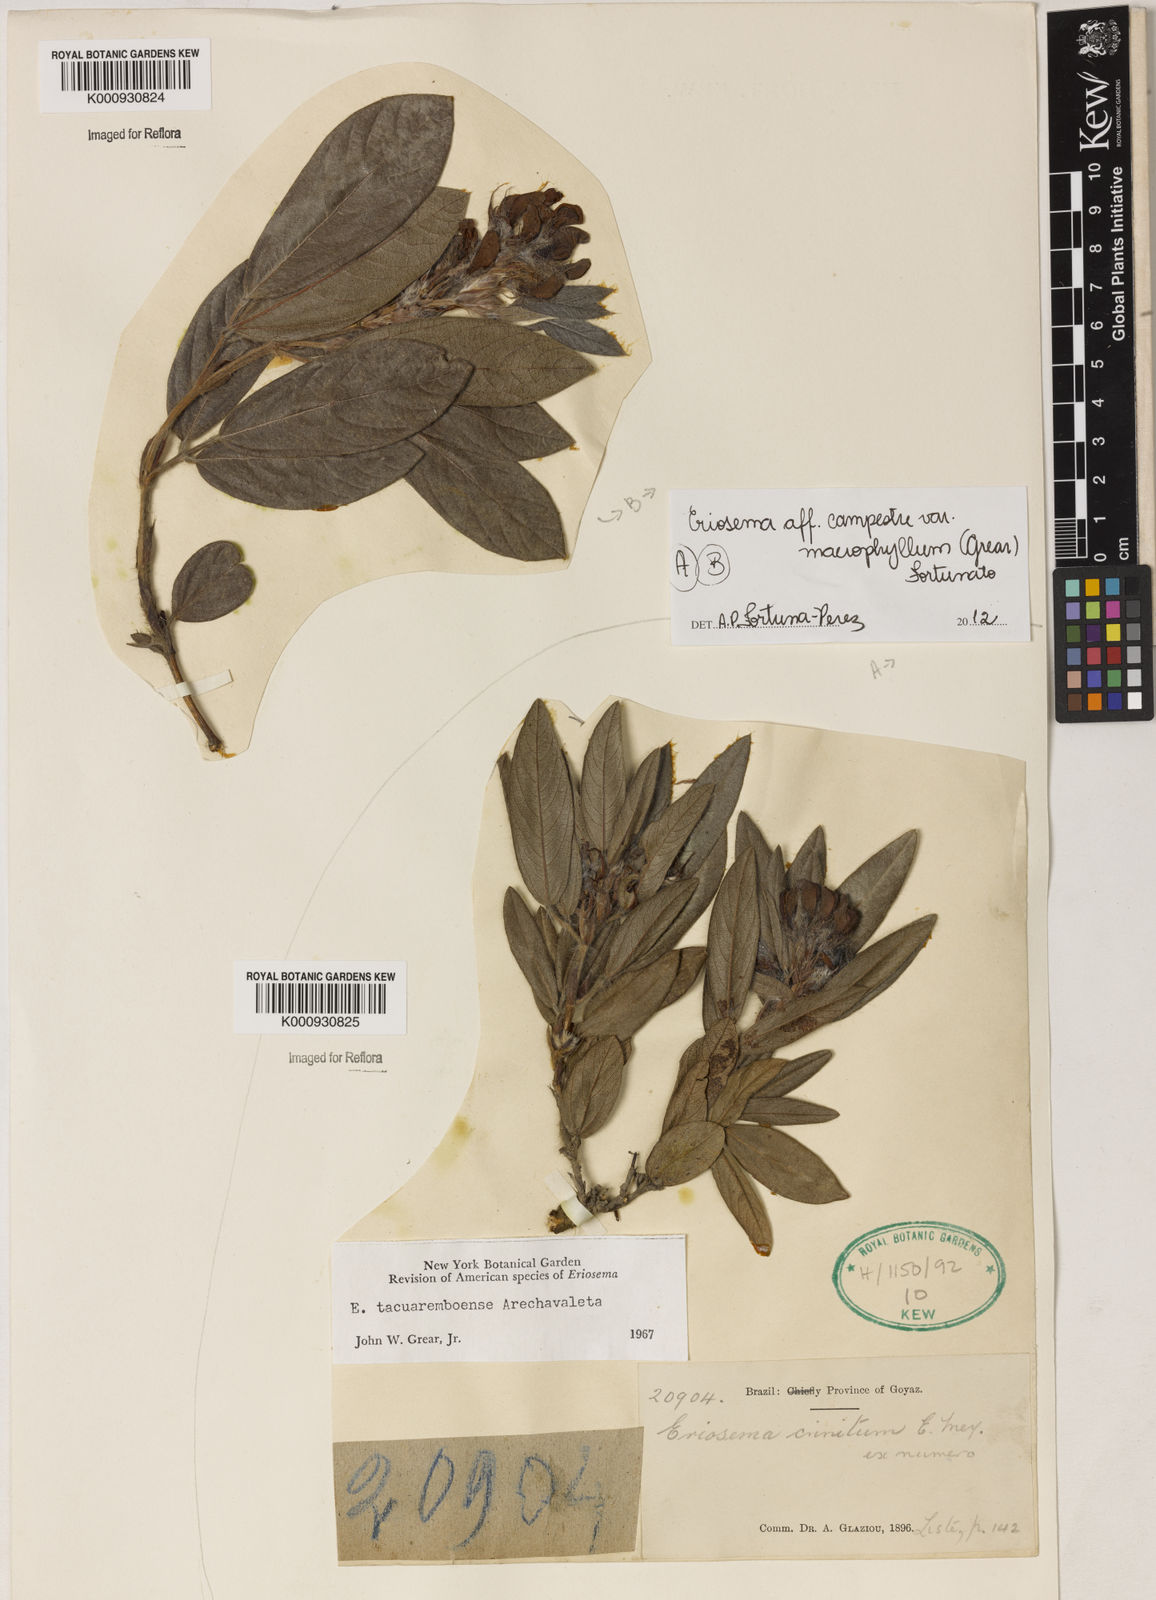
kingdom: Plantae
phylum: Tracheophyta
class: Magnoliopsida
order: Fabales
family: Fabaceae
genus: Eriosema
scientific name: Eriosema campestre
